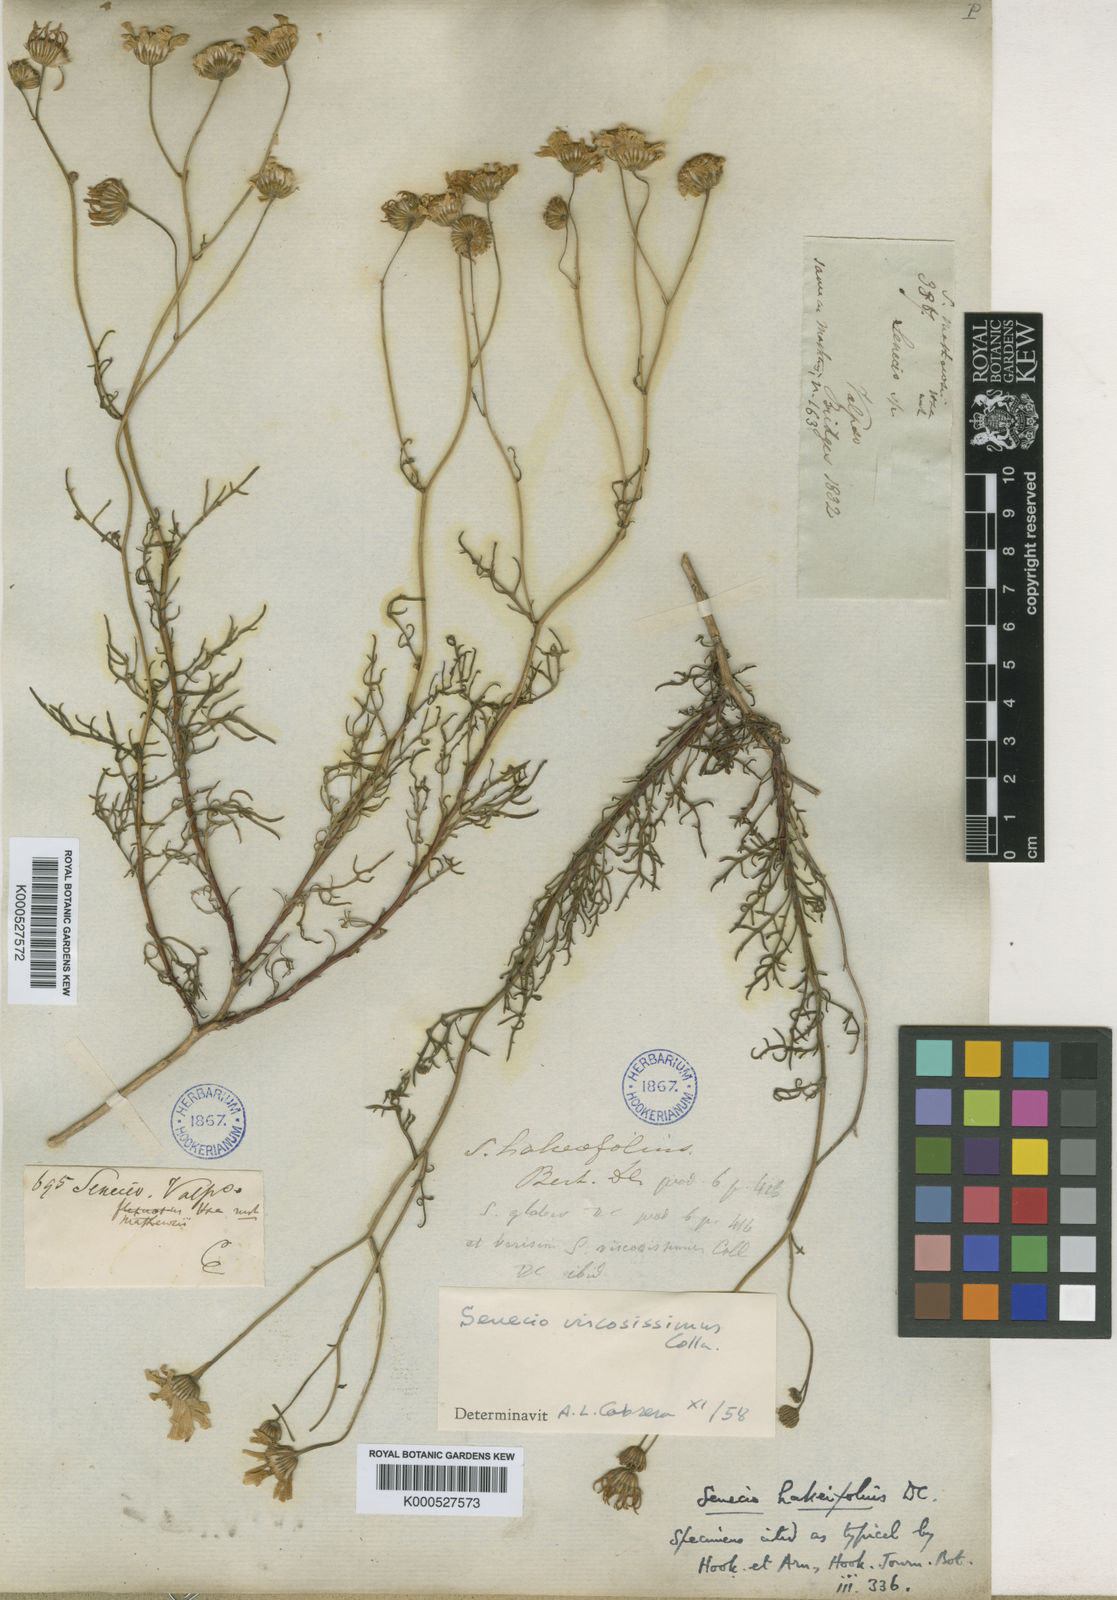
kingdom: Plantae
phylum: Tracheophyta
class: Magnoliopsida
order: Asterales
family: Asteraceae
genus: Senecio
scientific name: Senecio hakeifolius
